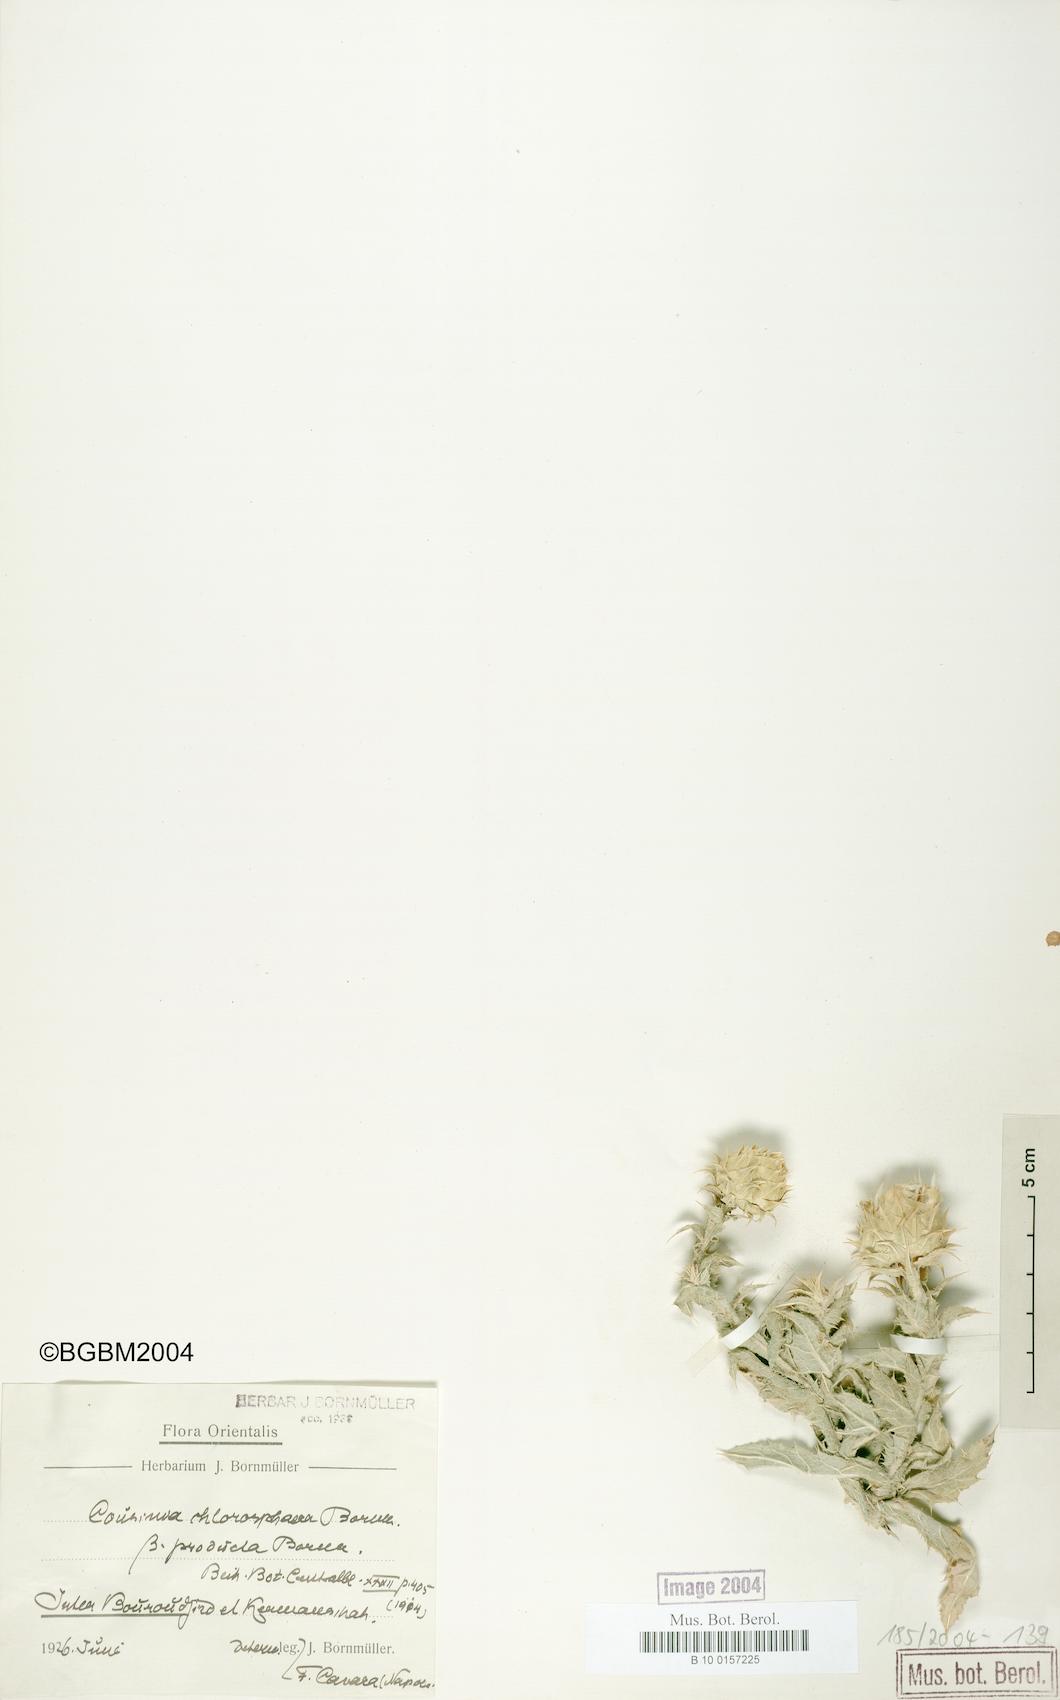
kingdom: Plantae
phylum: Tracheophyta
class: Magnoliopsida
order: Asterales
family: Asteraceae
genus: Cousinia
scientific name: Cousinia chlorosphaera
